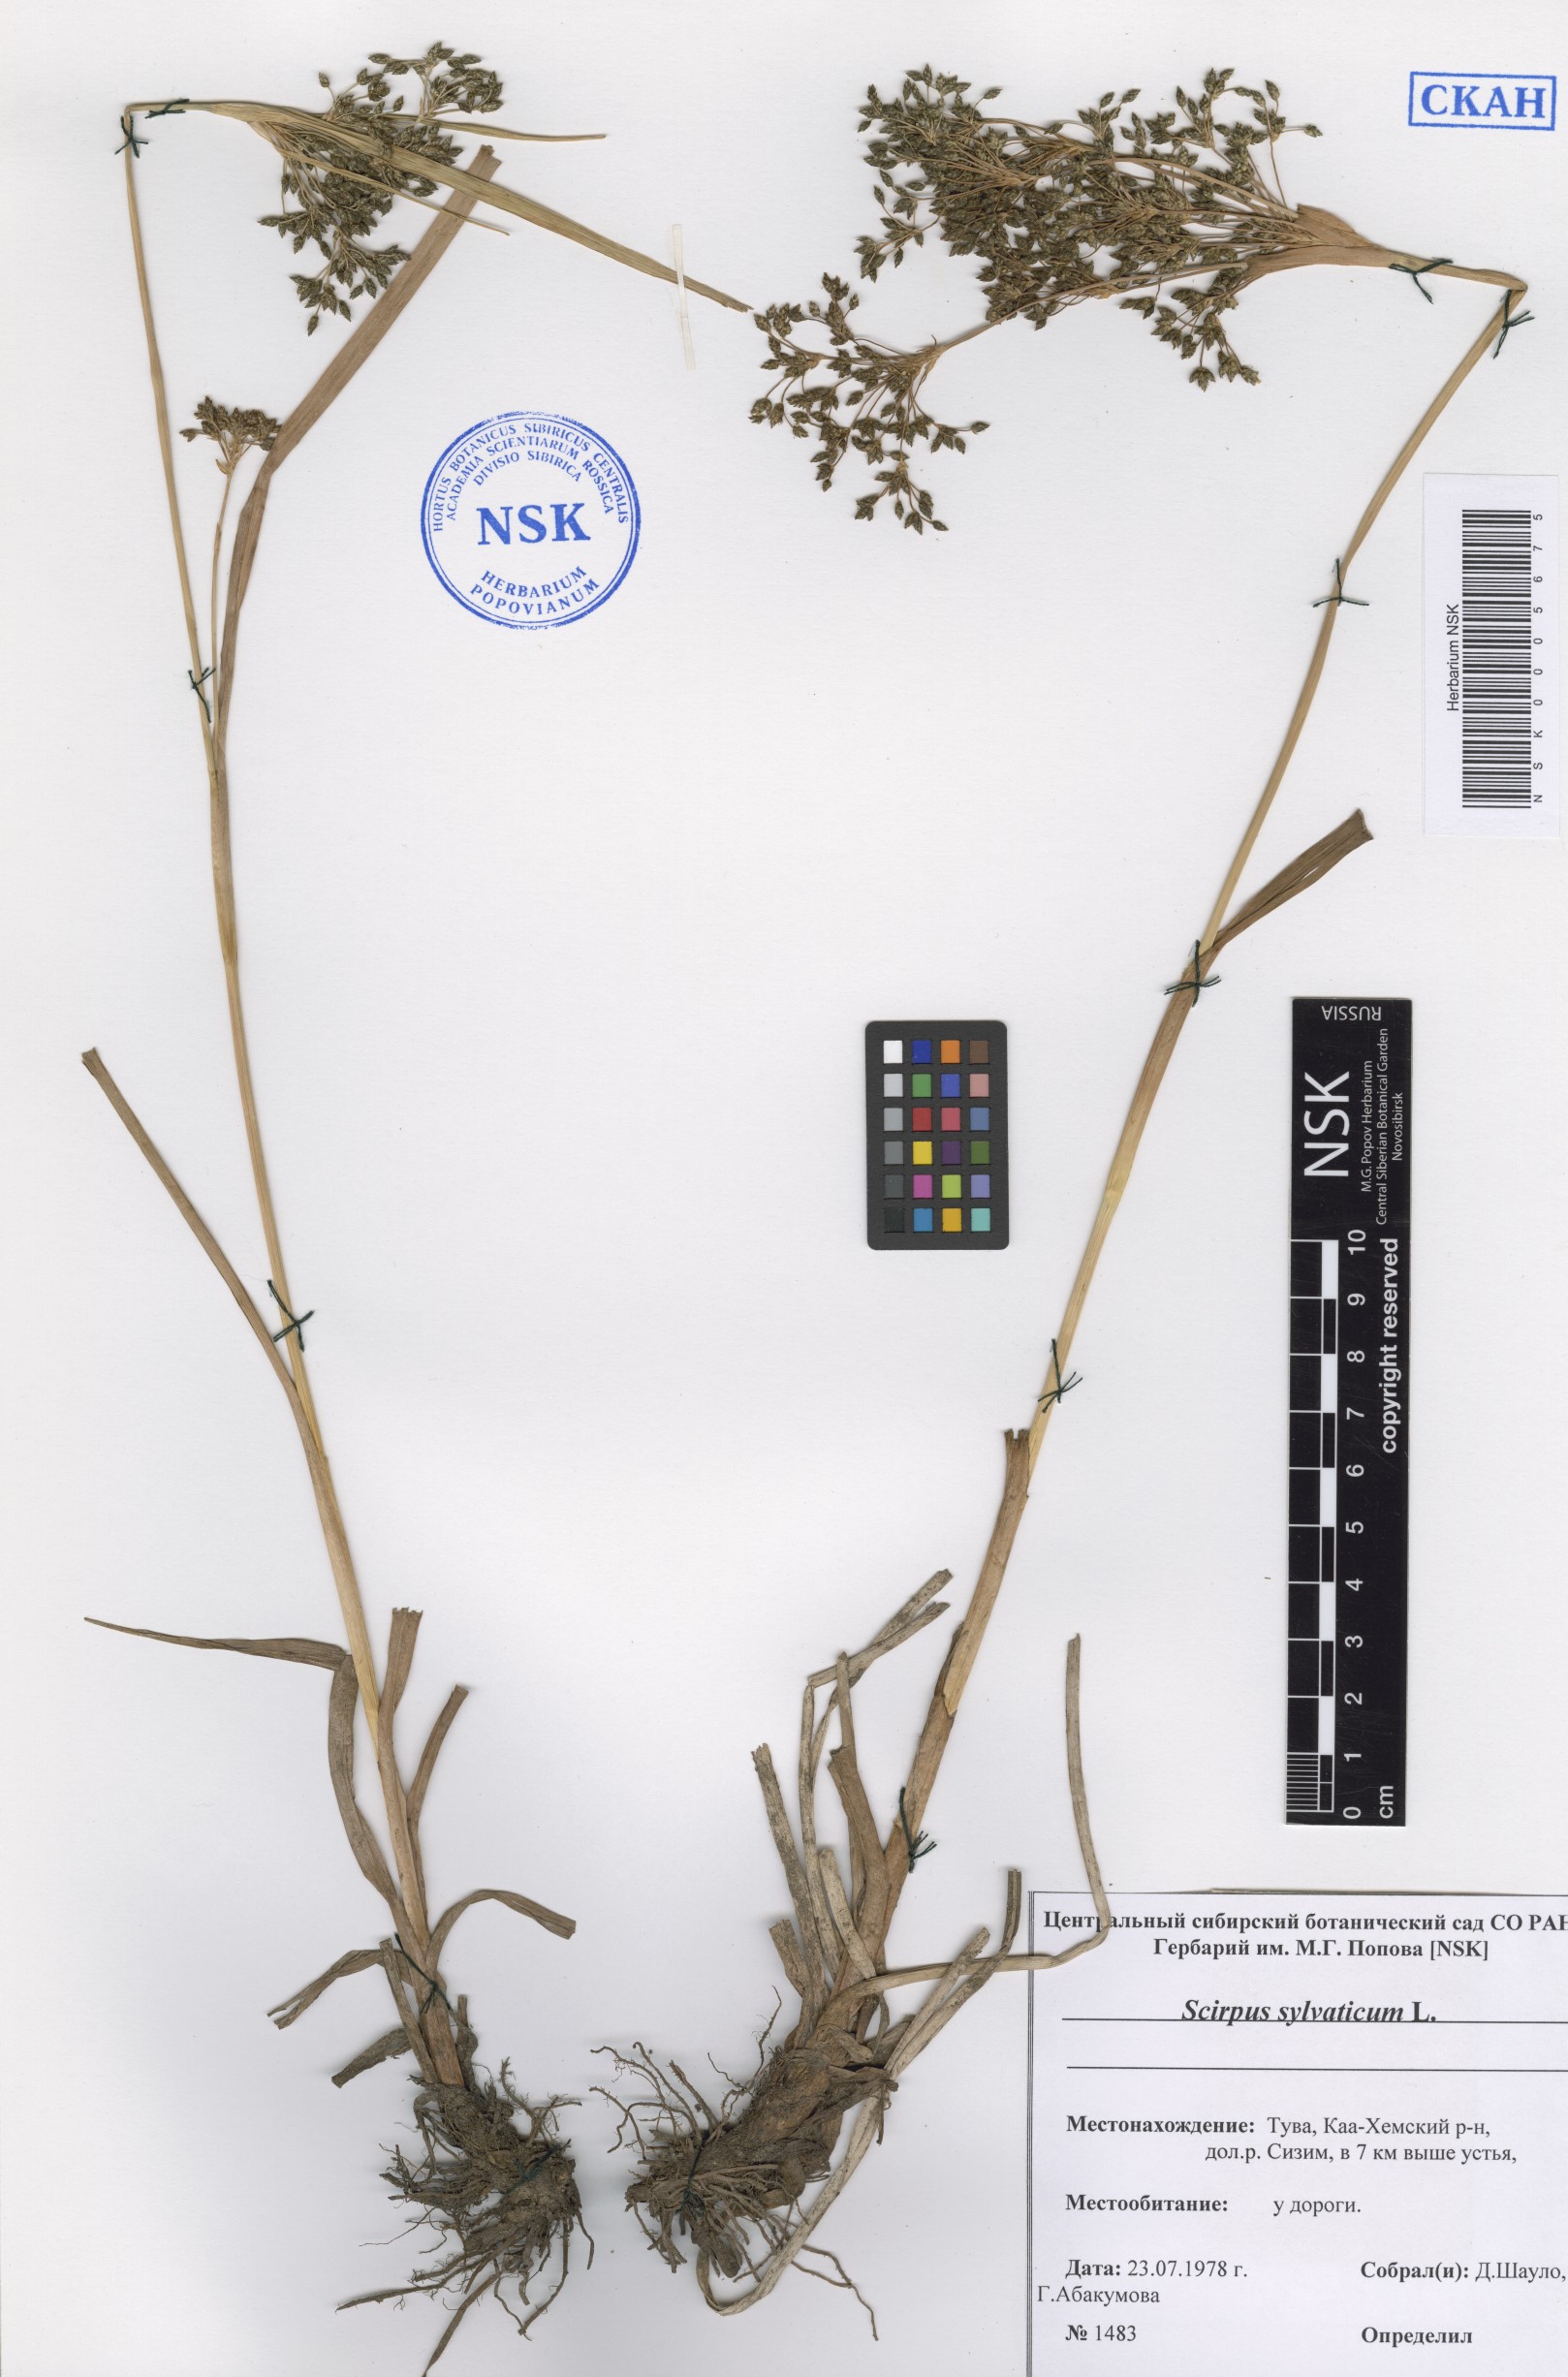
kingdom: Plantae
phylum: Tracheophyta
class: Liliopsida
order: Poales
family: Cyperaceae
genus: Scirpus
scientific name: Scirpus sylvaticus
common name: Wood club-rush
